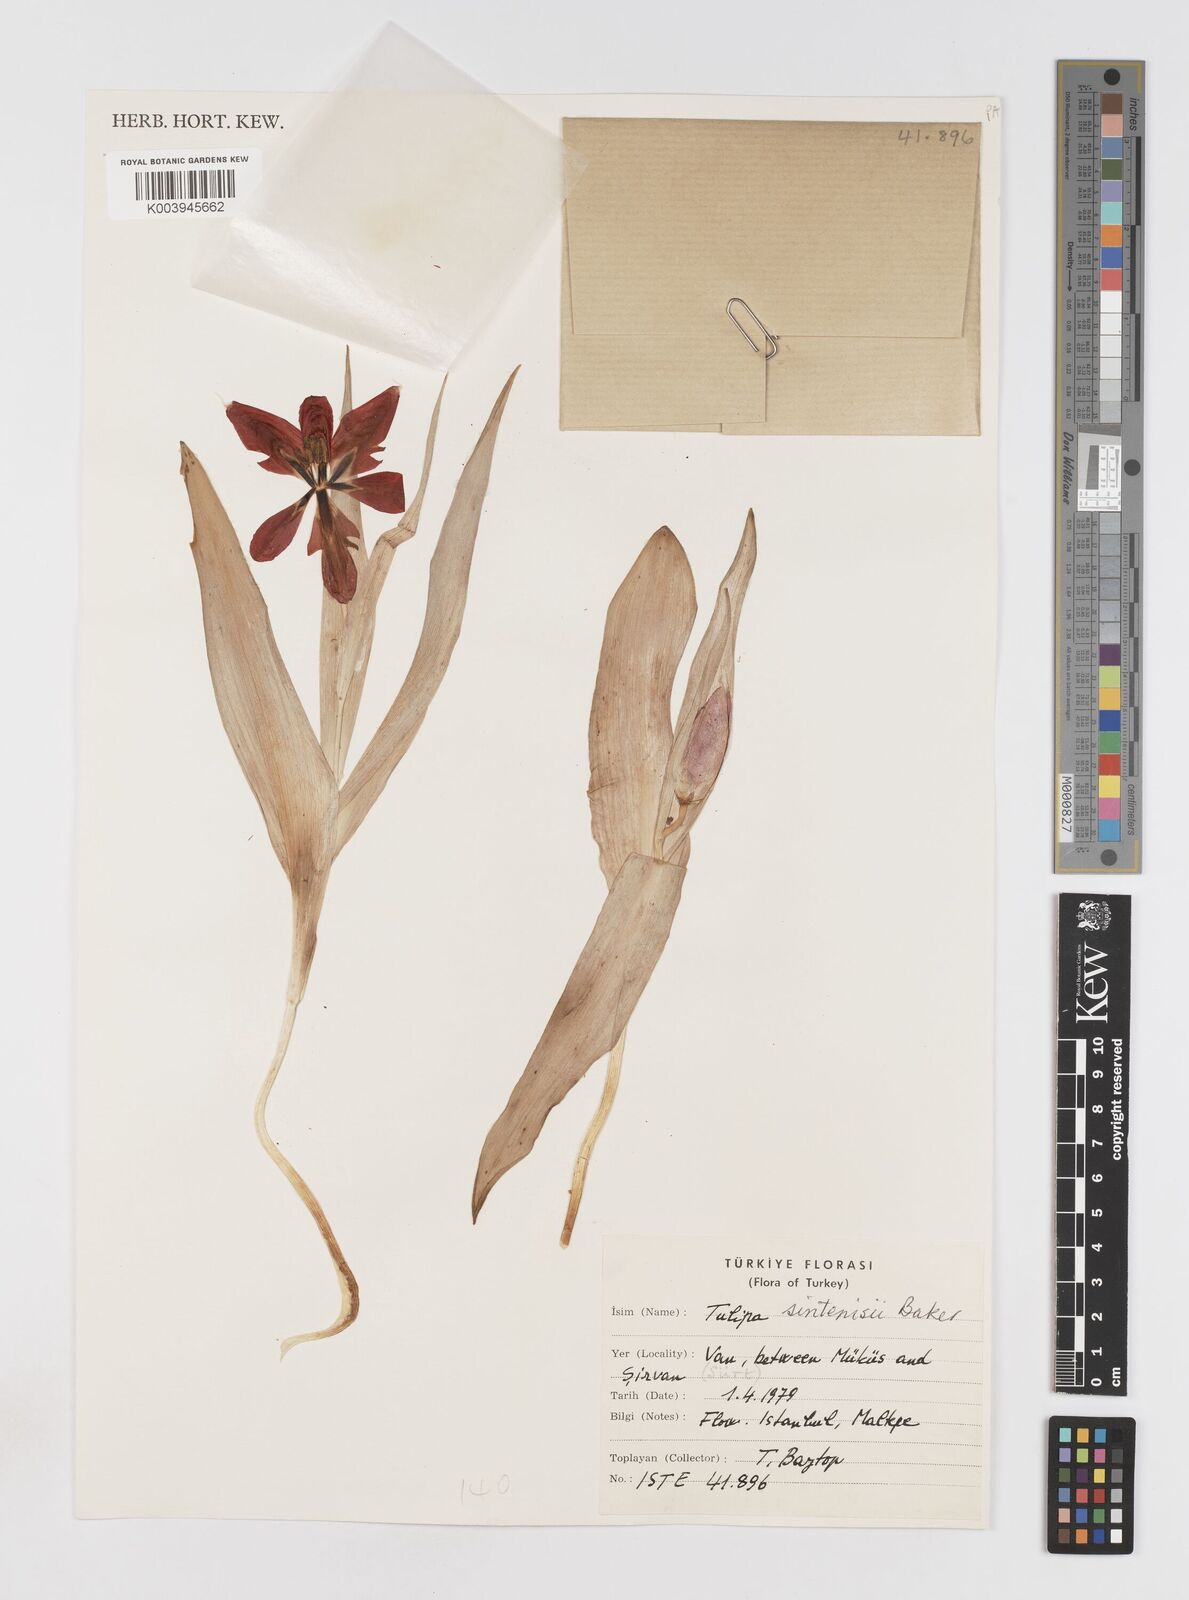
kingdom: Plantae
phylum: Tracheophyta
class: Liliopsida
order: Liliales
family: Liliaceae
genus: Tulipa
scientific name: Tulipa aleppensis
